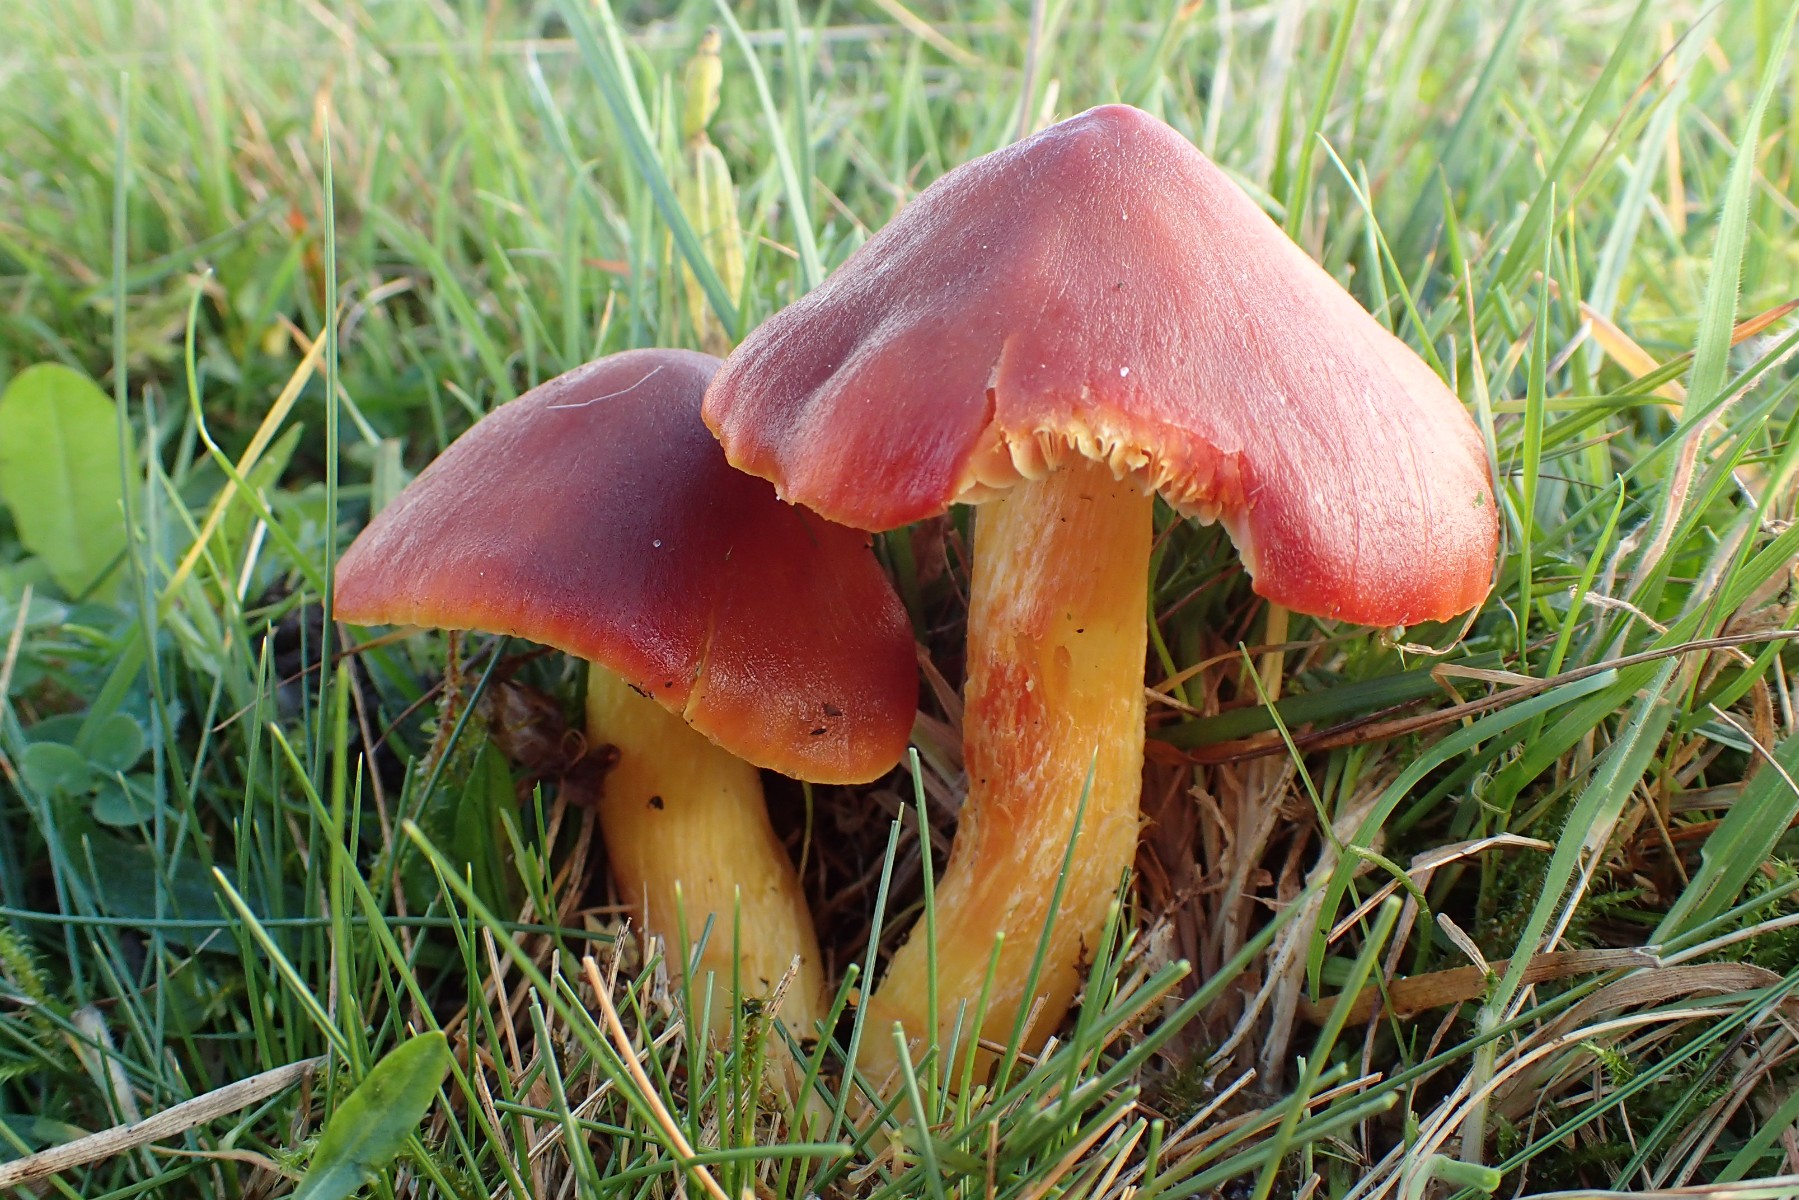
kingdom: Fungi
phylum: Basidiomycota
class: Agaricomycetes
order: Agaricales
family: Hygrophoraceae
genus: Hygrocybe
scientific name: Hygrocybe punicea
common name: skarlagen-vokshat
